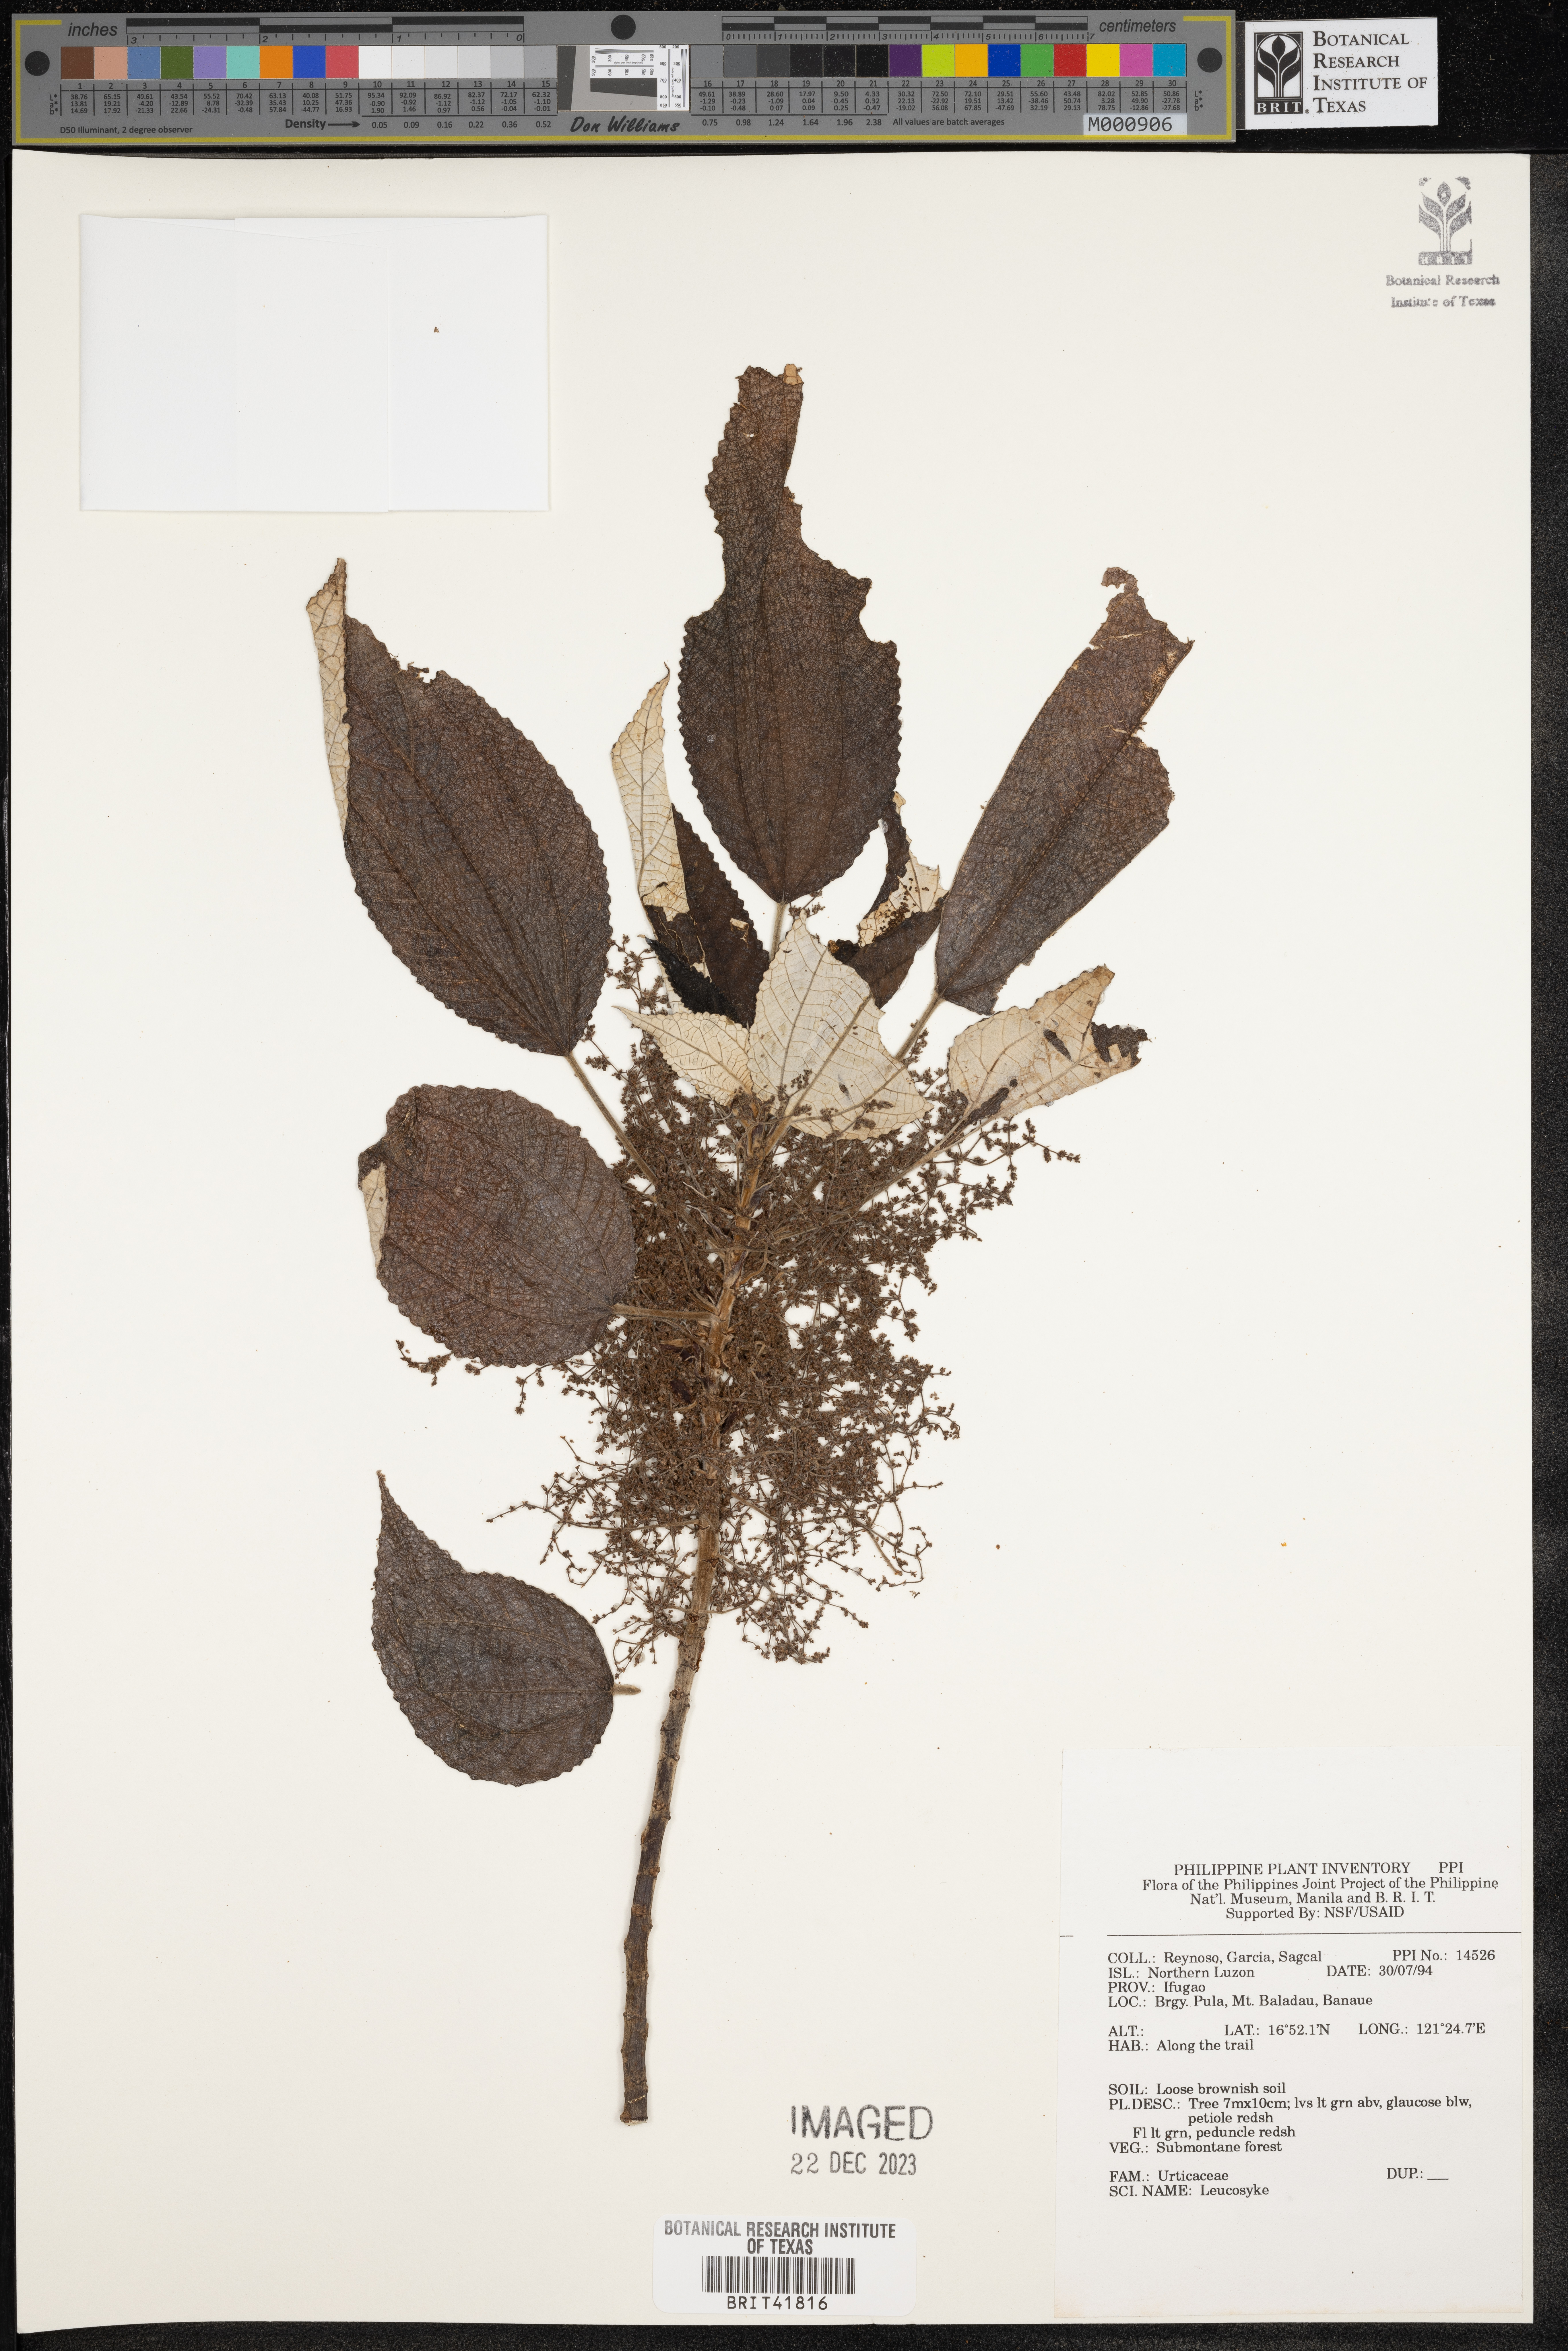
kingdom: Plantae
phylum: Tracheophyta
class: Magnoliopsida
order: Rosales
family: Urticaceae
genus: Leucosyke
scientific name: Leucosyke
